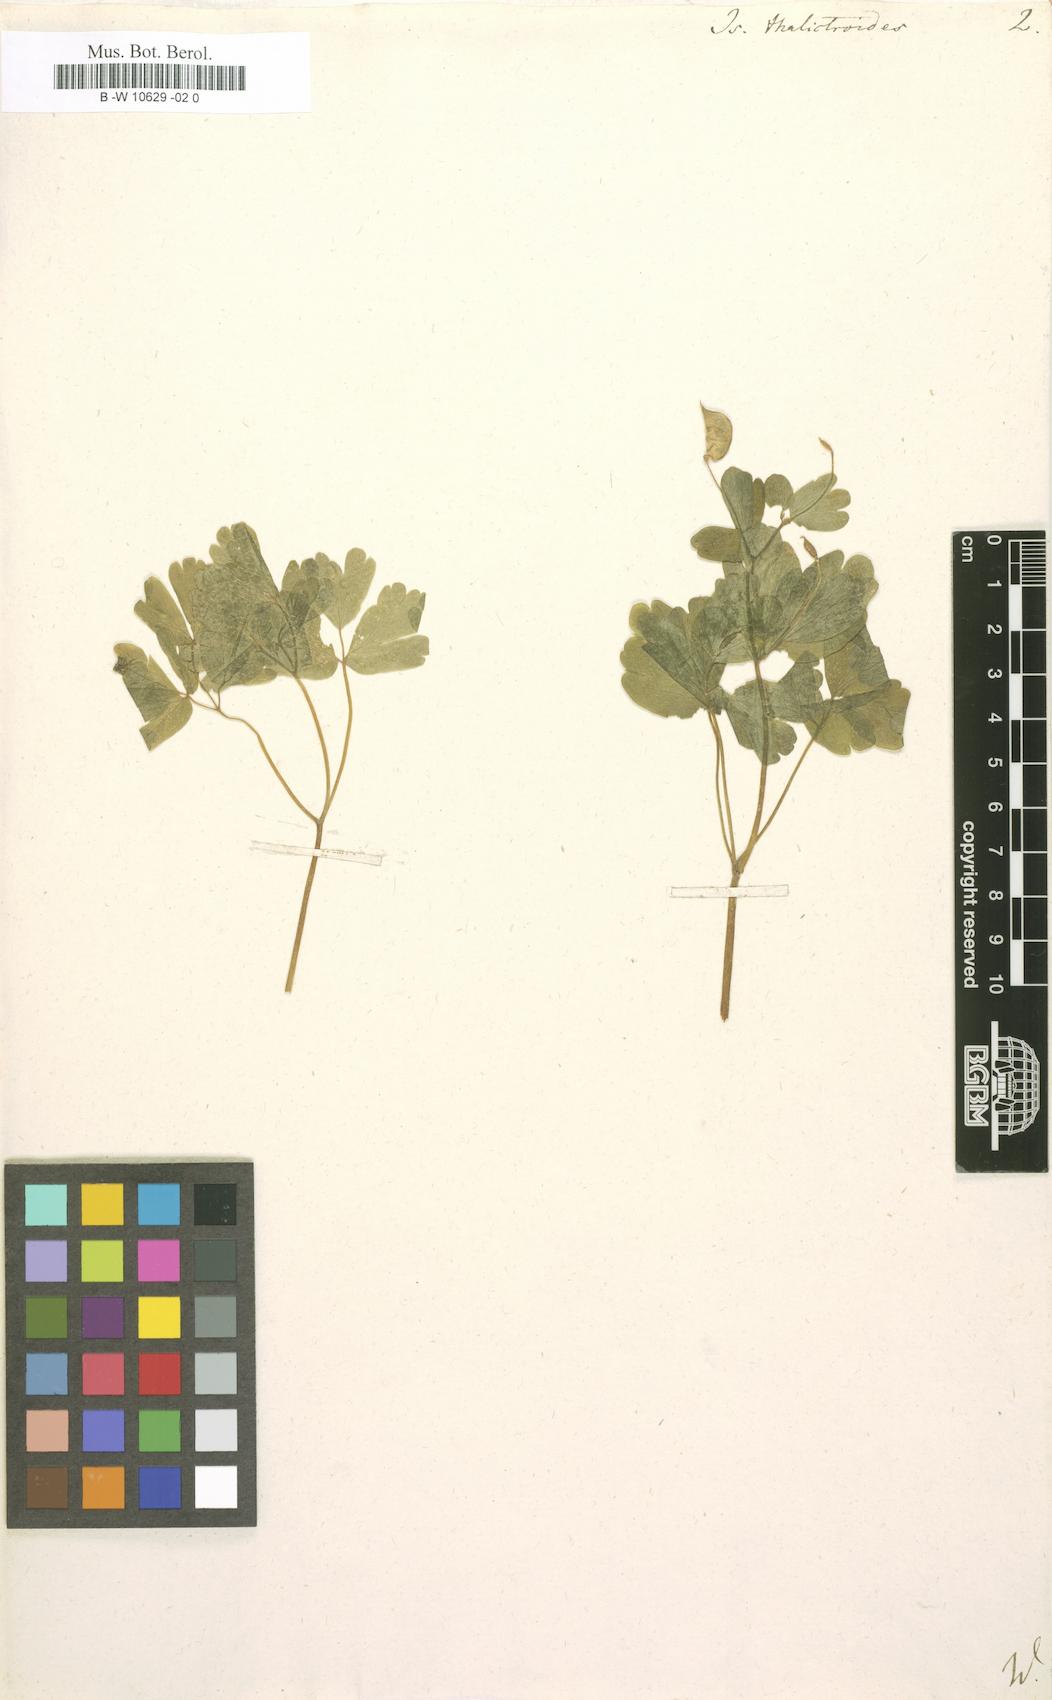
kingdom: Plantae
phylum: Tracheophyta
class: Magnoliopsida
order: Ranunculales
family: Ranunculaceae
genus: Isopyrum
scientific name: Isopyrum thalictroides
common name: Isopyrum
